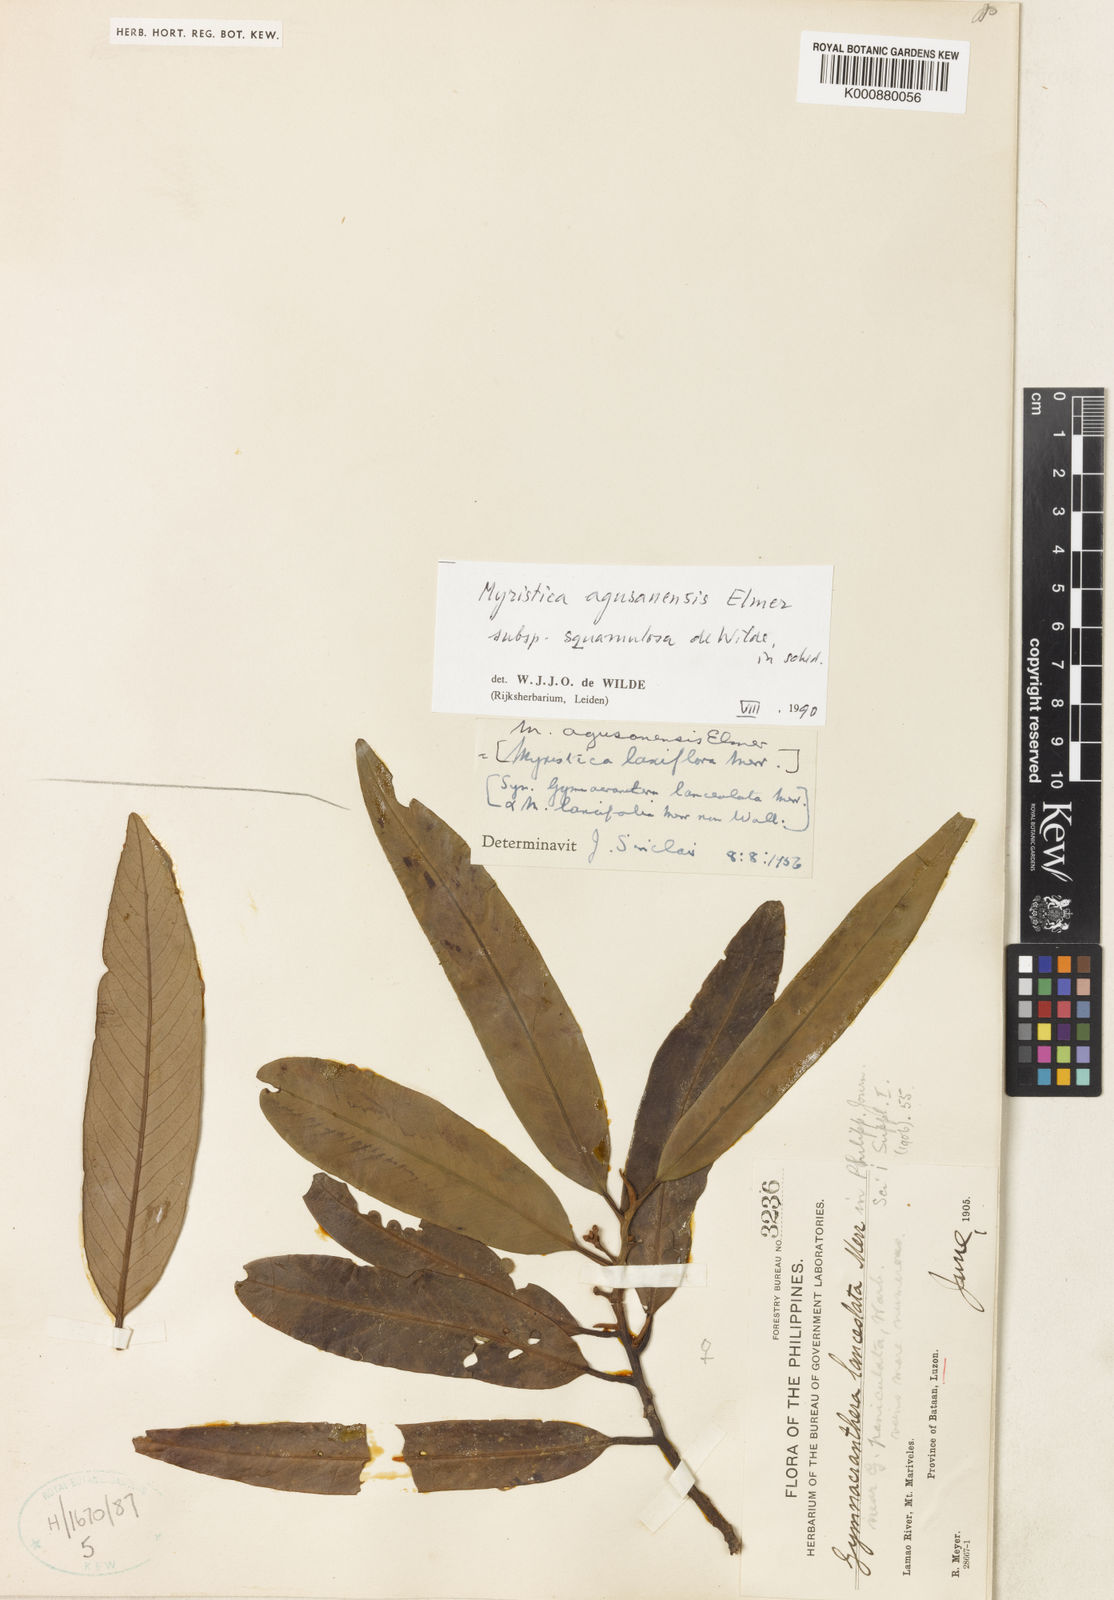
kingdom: Plantae
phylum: Tracheophyta
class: Magnoliopsida
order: Magnoliales
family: Myristicaceae
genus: Myristica
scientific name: Myristica agusanensis
